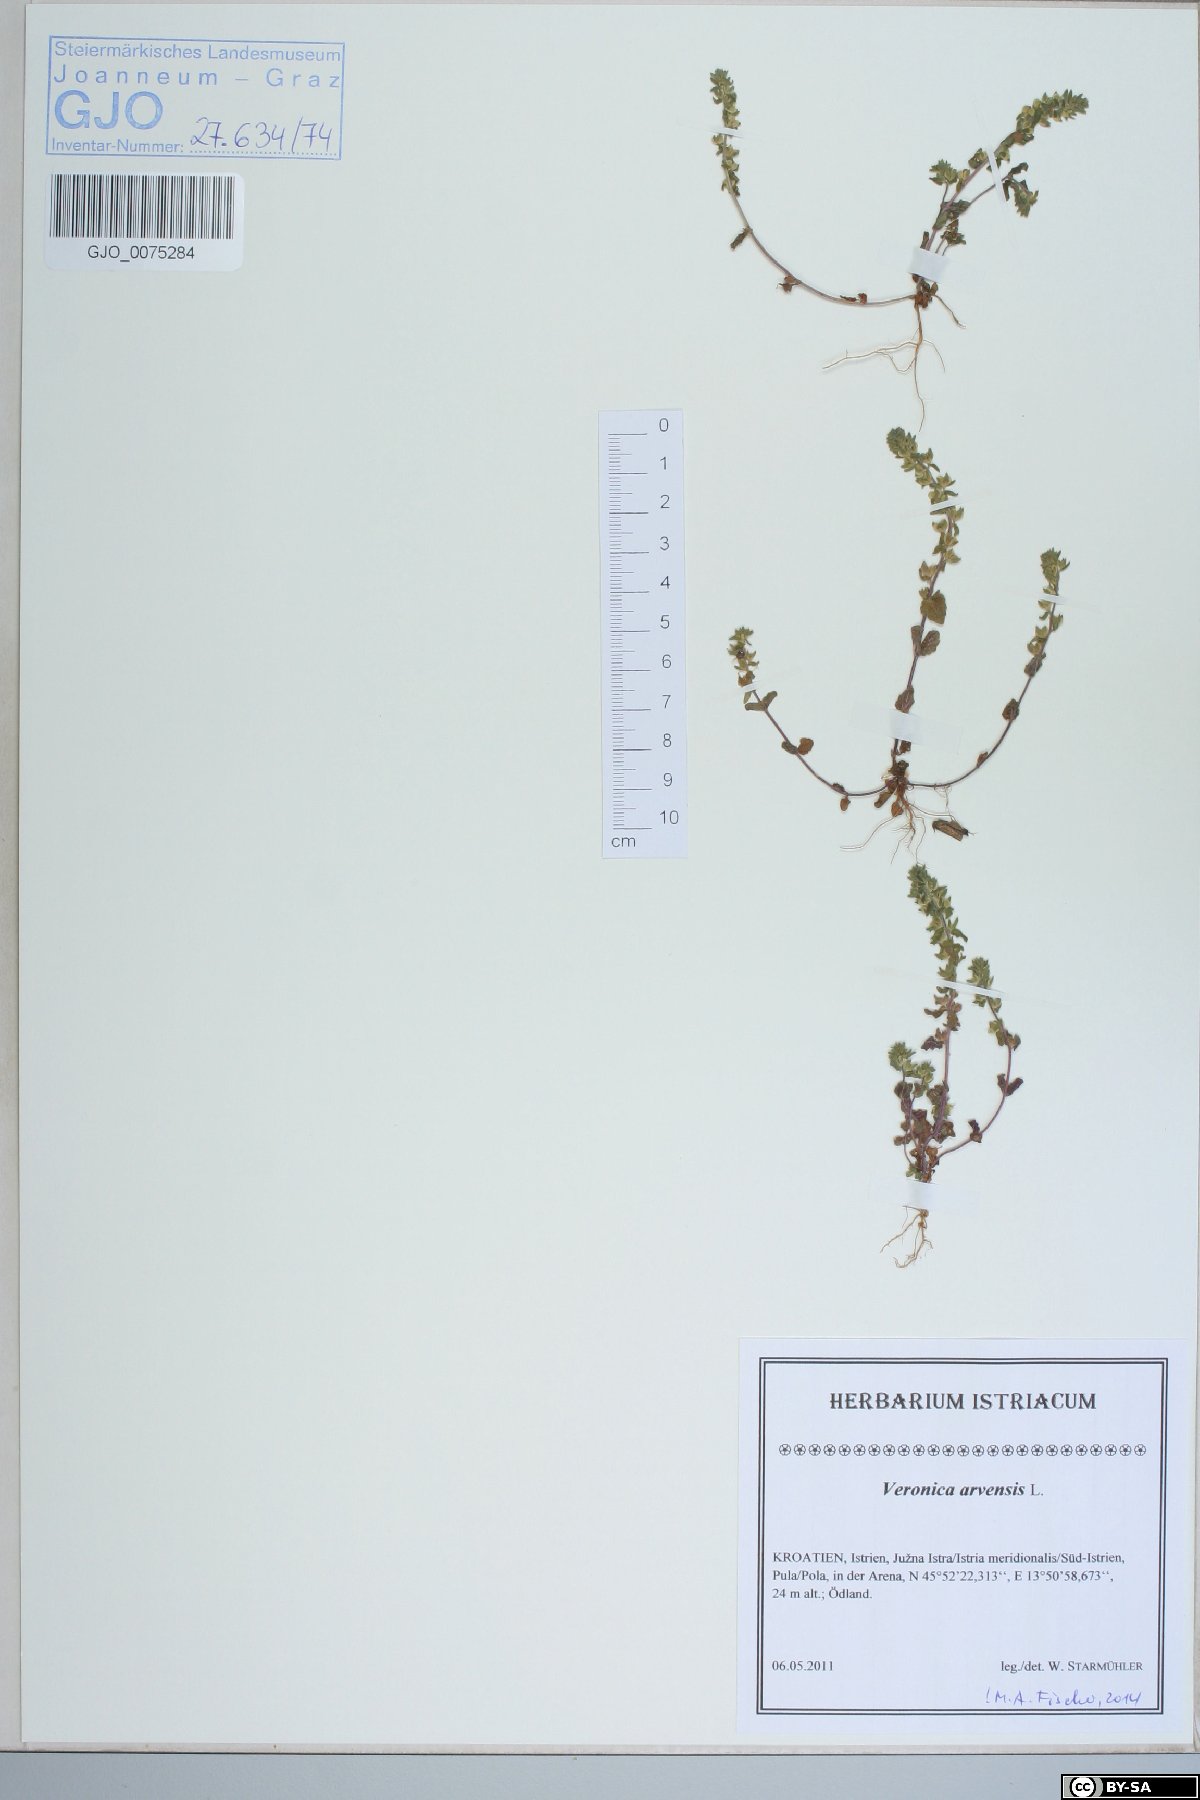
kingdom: Plantae
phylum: Tracheophyta
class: Magnoliopsida
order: Lamiales
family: Plantaginaceae
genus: Veronica
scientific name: Veronica arvensis
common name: Corn speedwell
